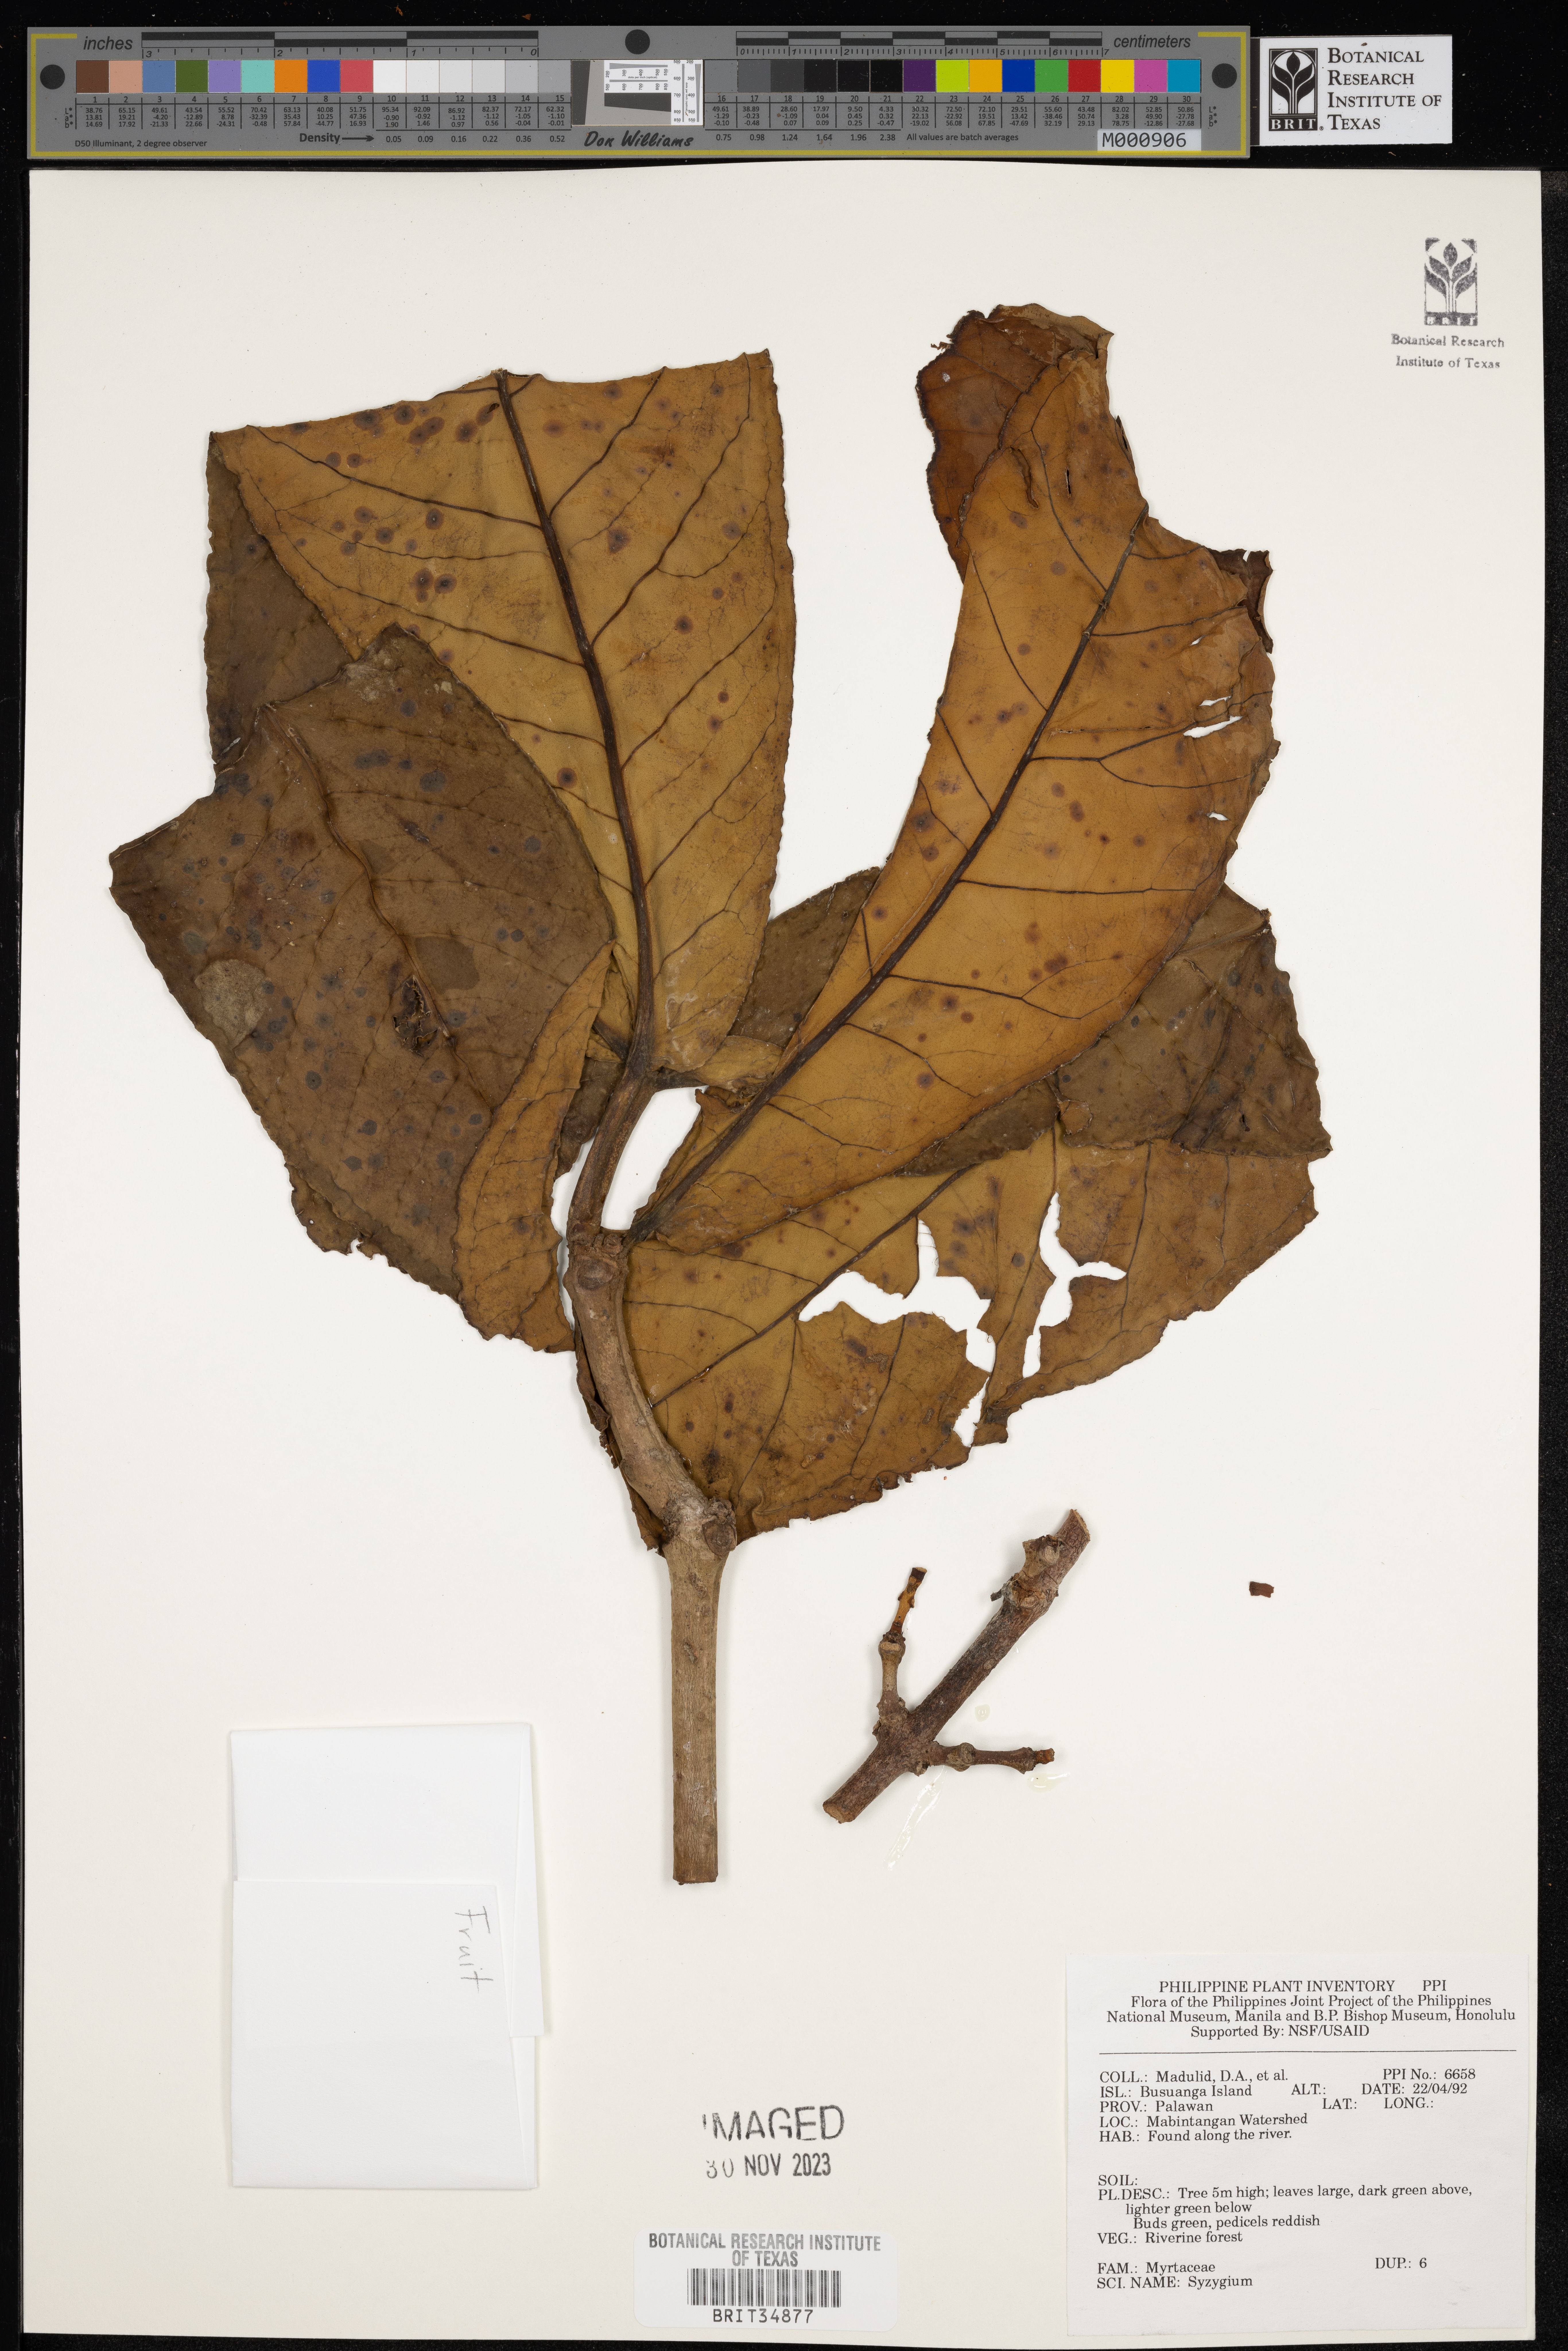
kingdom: Plantae
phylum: Tracheophyta
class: Magnoliopsida
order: Myrtales
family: Myrtaceae
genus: Syzygium
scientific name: Syzygium
